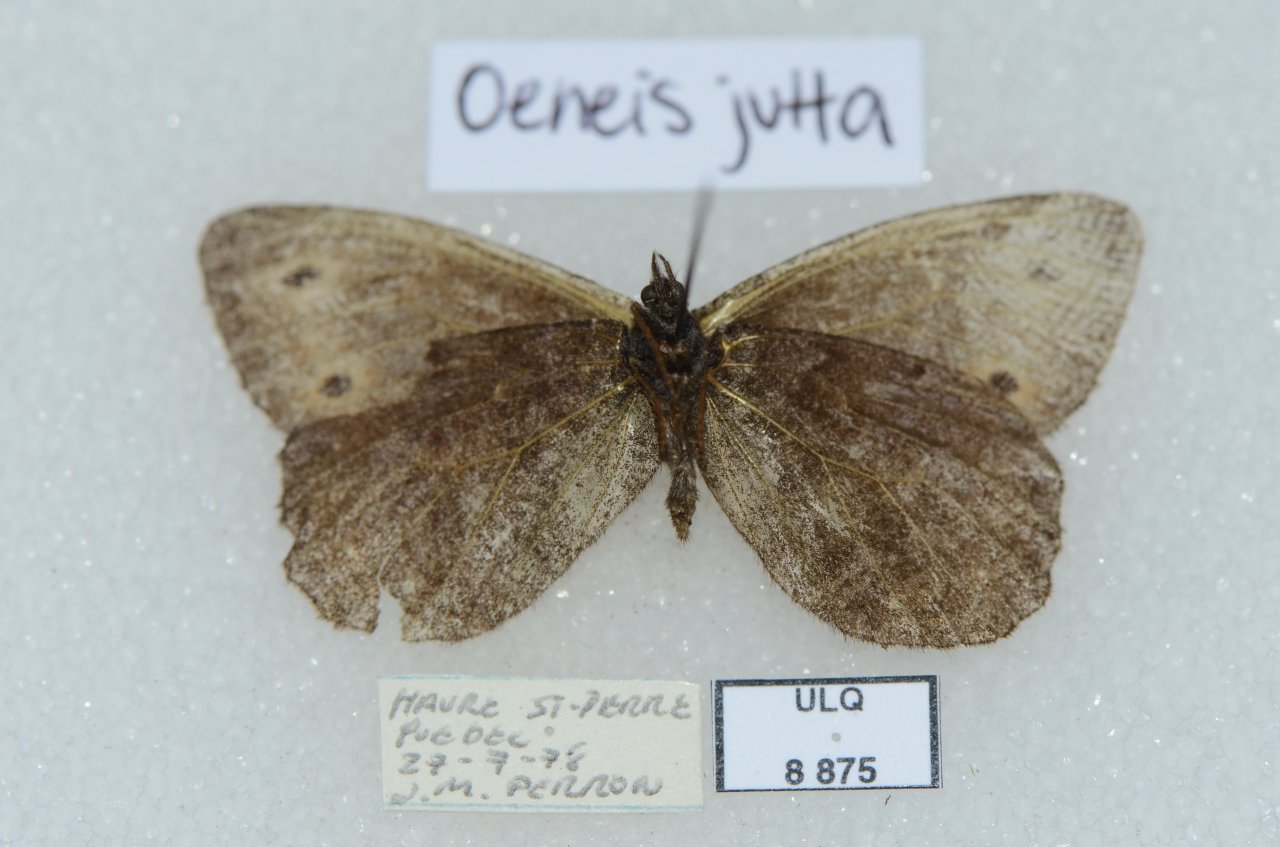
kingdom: Animalia
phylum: Arthropoda
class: Insecta
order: Lepidoptera
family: Nymphalidae
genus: Oeneis
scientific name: Oeneis jutta
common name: Jutta Arctic
